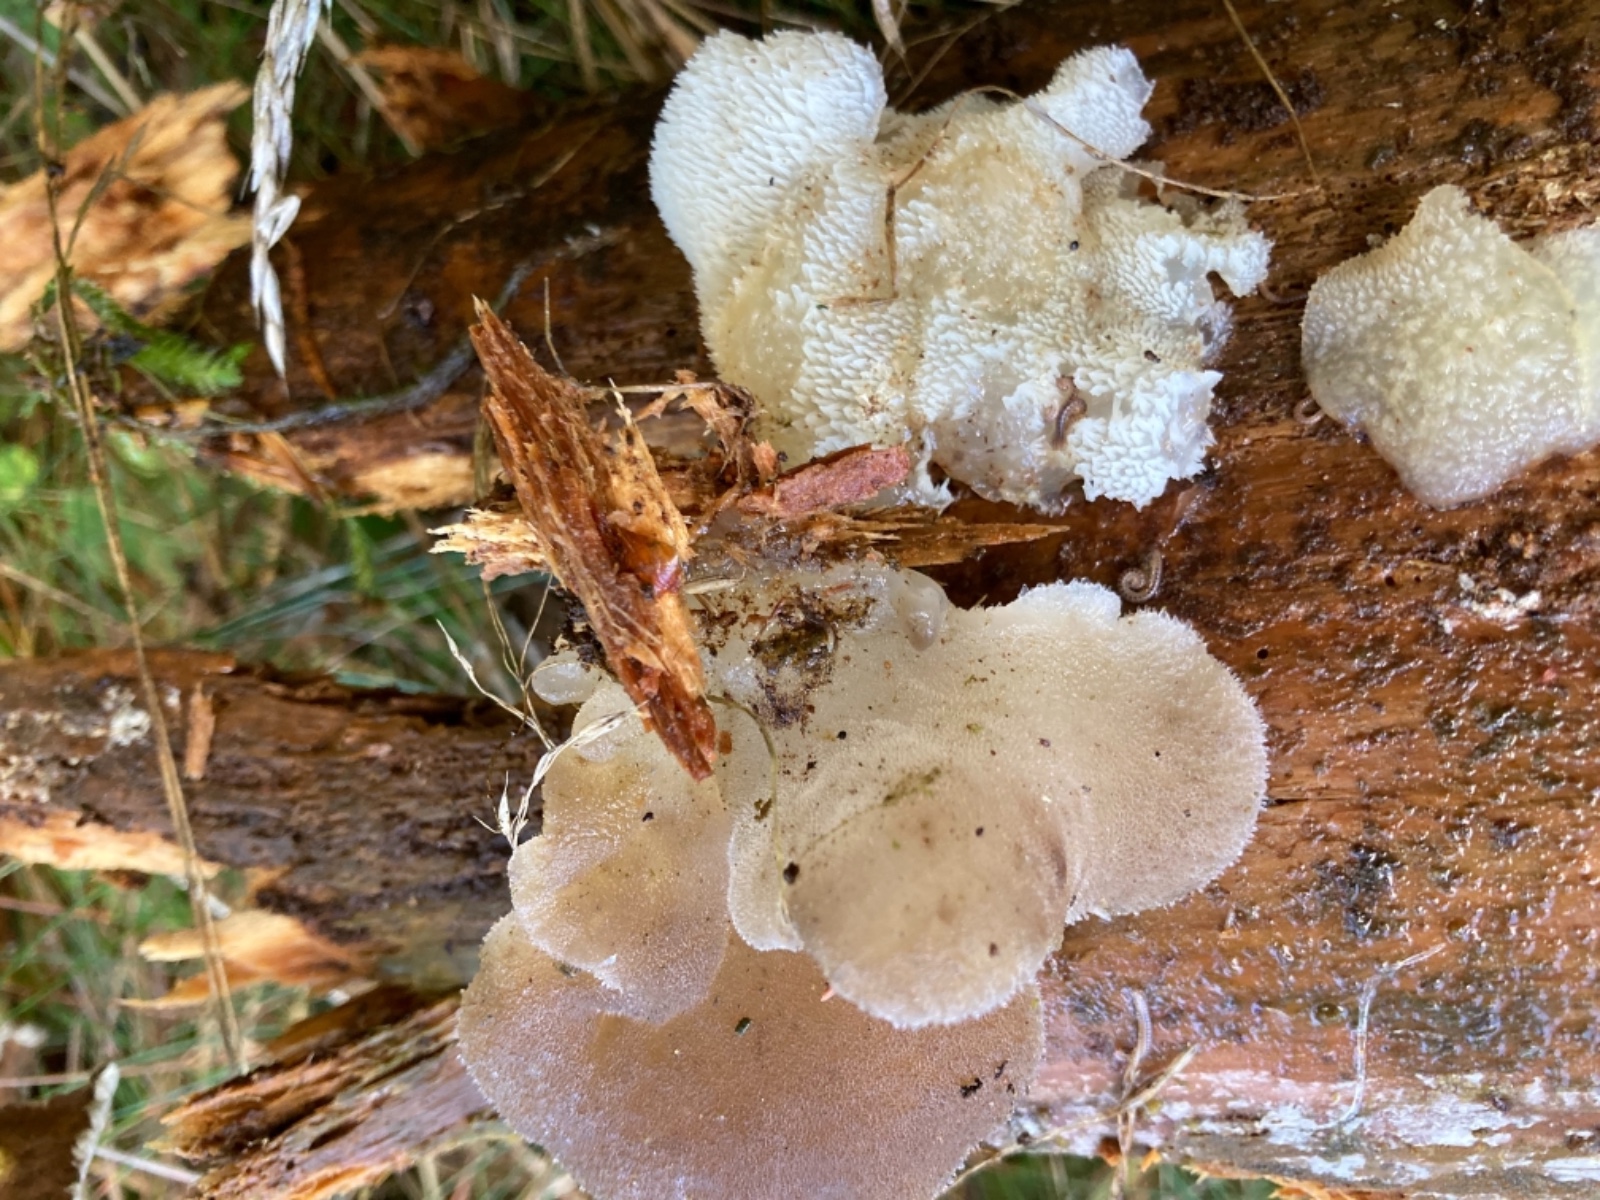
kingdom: Fungi
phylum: Basidiomycota
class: Agaricomycetes
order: Auriculariales
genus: Pseudohydnum
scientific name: Pseudohydnum gelatinosum
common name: bævretand
